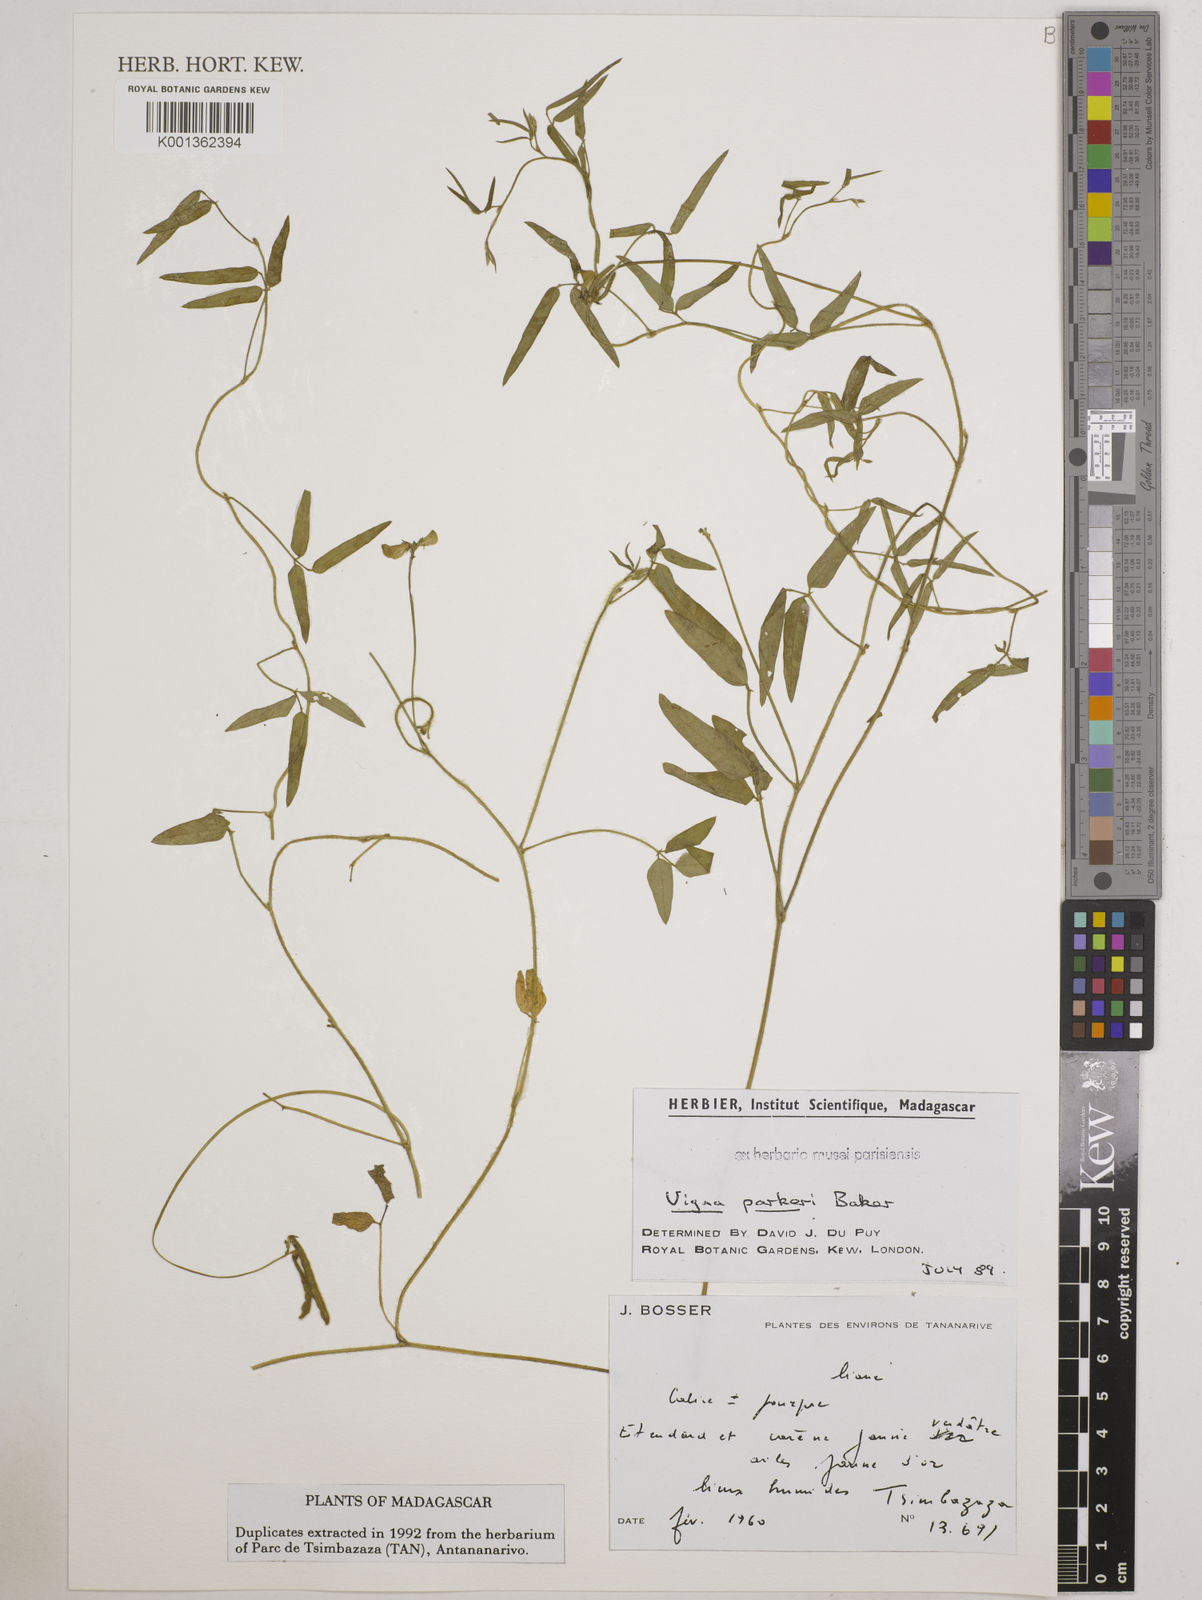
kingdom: Plantae
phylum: Tracheophyta
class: Magnoliopsida
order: Fabales
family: Fabaceae
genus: Vigna
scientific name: Vigna parkeri
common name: Creeping vigna
